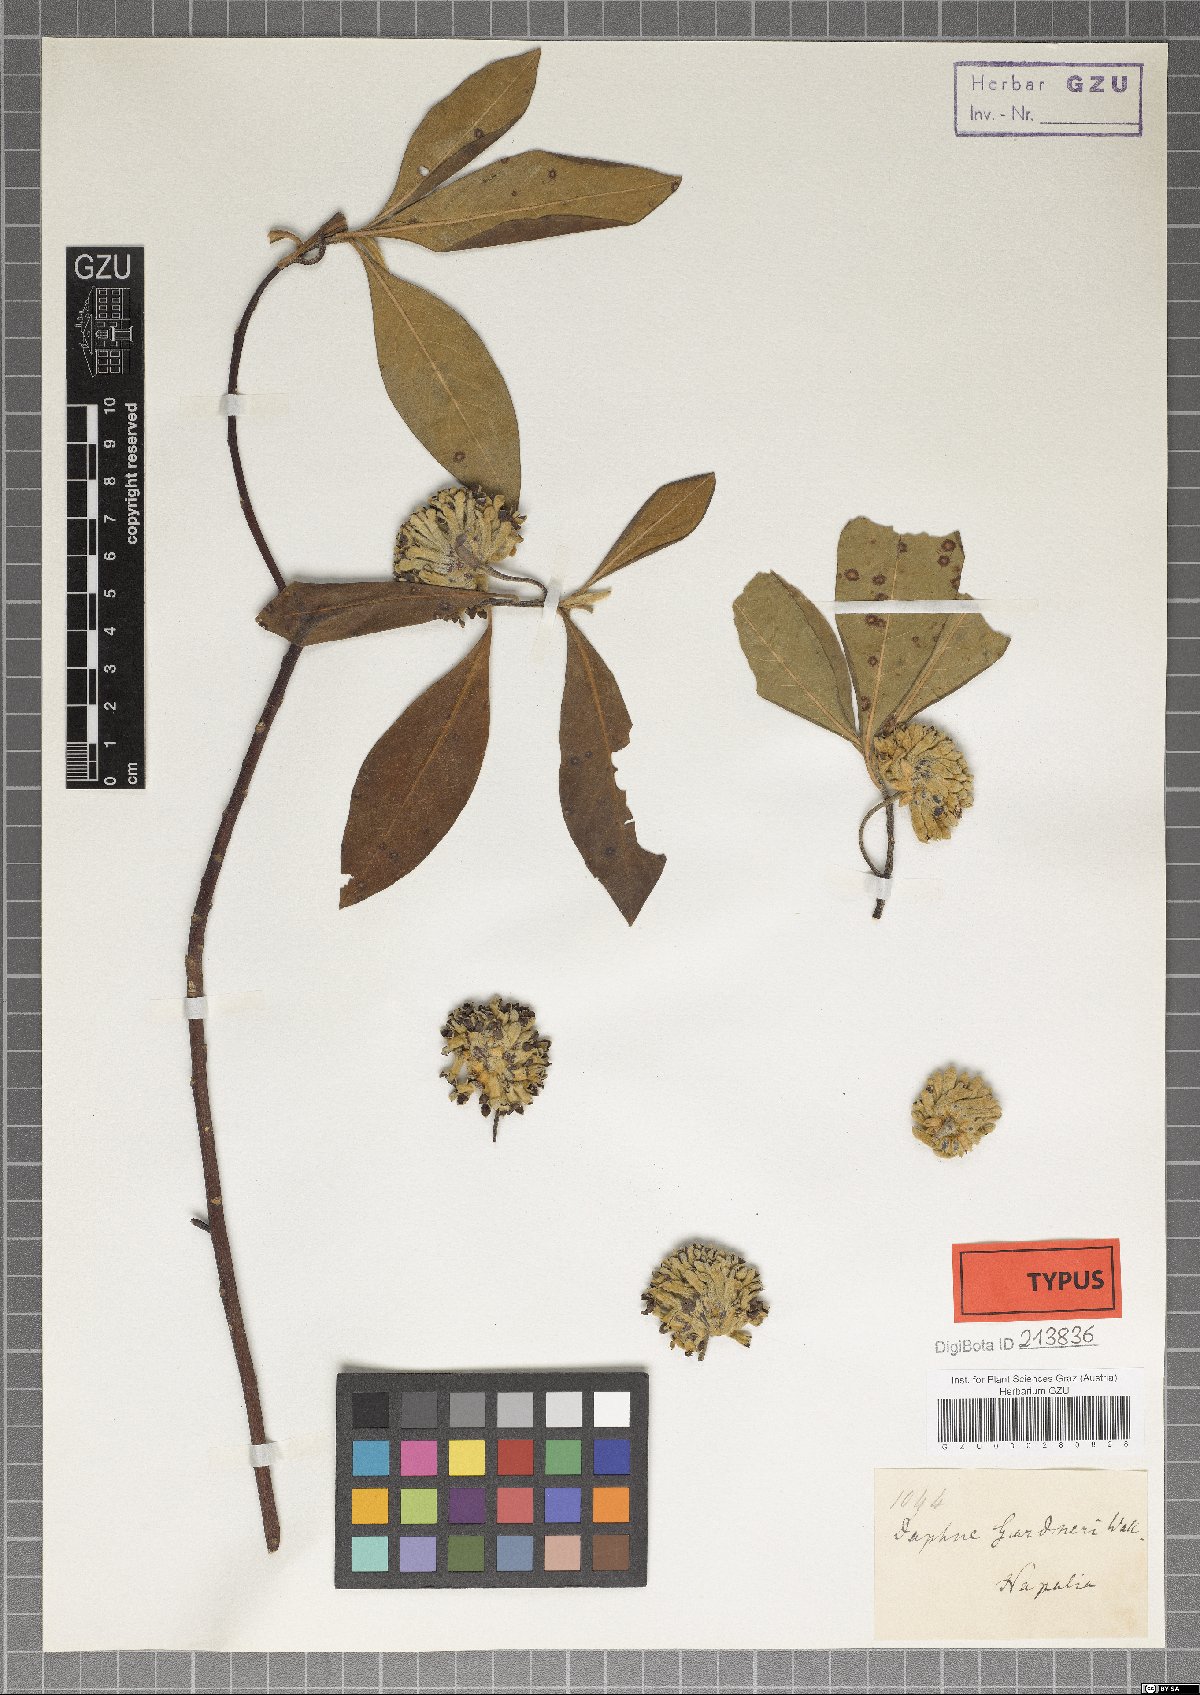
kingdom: Plantae
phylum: Tracheophyta
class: Magnoliopsida
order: Malvales
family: Thymelaeaceae
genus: Edgeworthia
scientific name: Edgeworthia gardneri
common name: Nepalese paperbush
